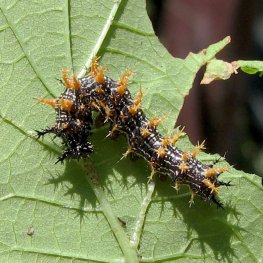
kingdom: Animalia
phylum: Arthropoda
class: Insecta
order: Lepidoptera
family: Nymphalidae
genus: Polygonia
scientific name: Polygonia interrogationis
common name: Question Mark
